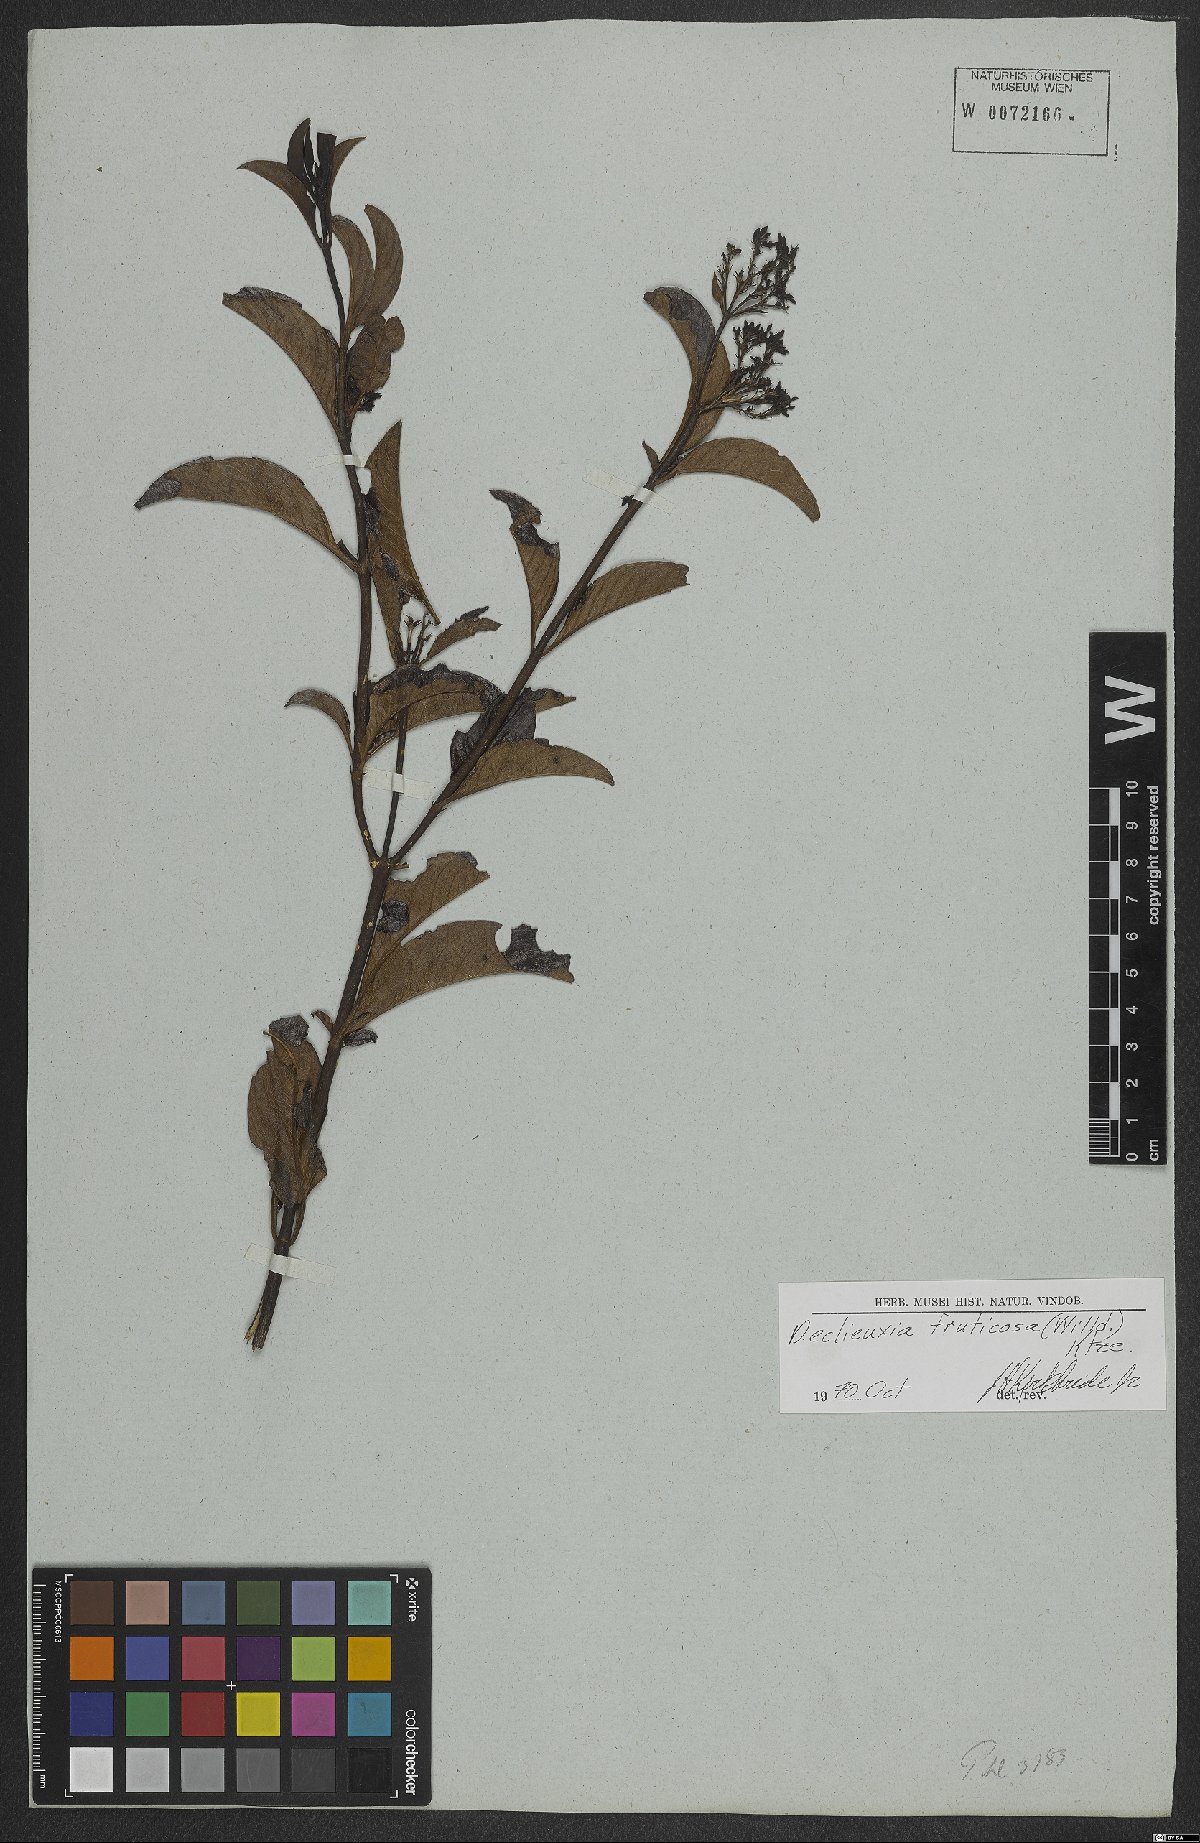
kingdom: Plantae
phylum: Tracheophyta
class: Magnoliopsida
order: Gentianales
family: Rubiaceae
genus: Declieuxia
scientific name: Declieuxia fruticosa
